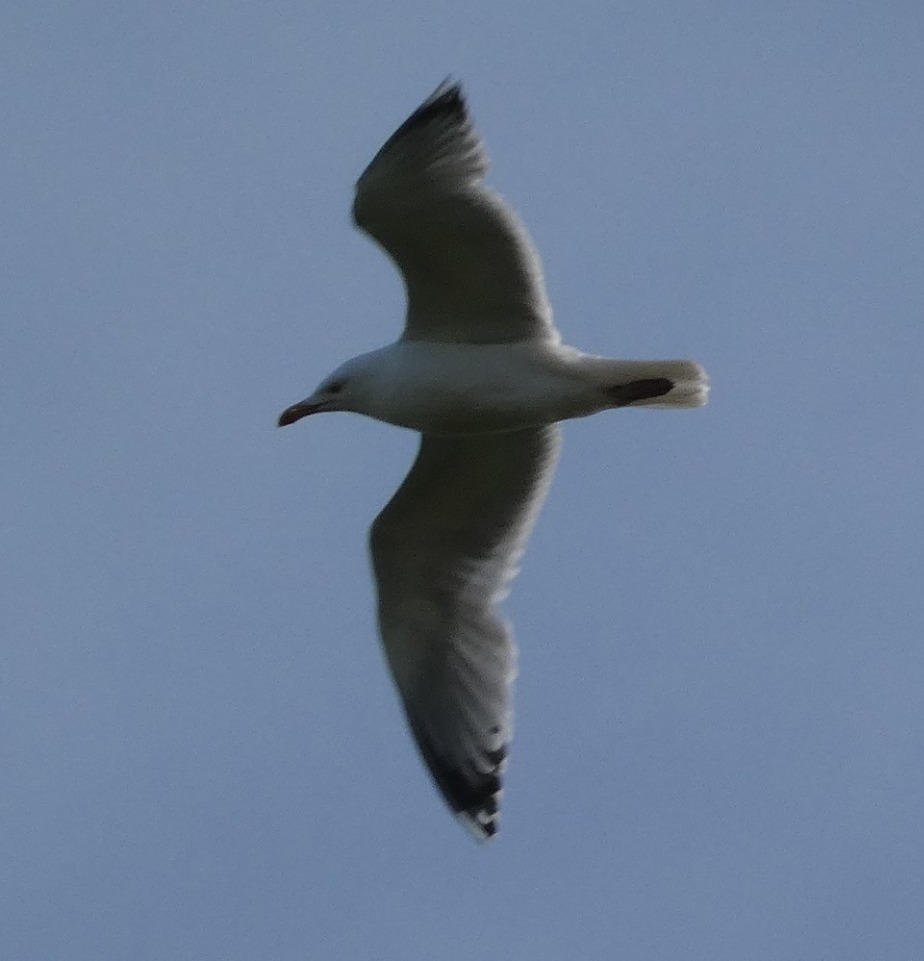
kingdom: Animalia
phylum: Chordata
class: Aves
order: Charadriiformes
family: Laridae
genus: Larus
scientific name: Larus argentatus
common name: Sølvmåge
